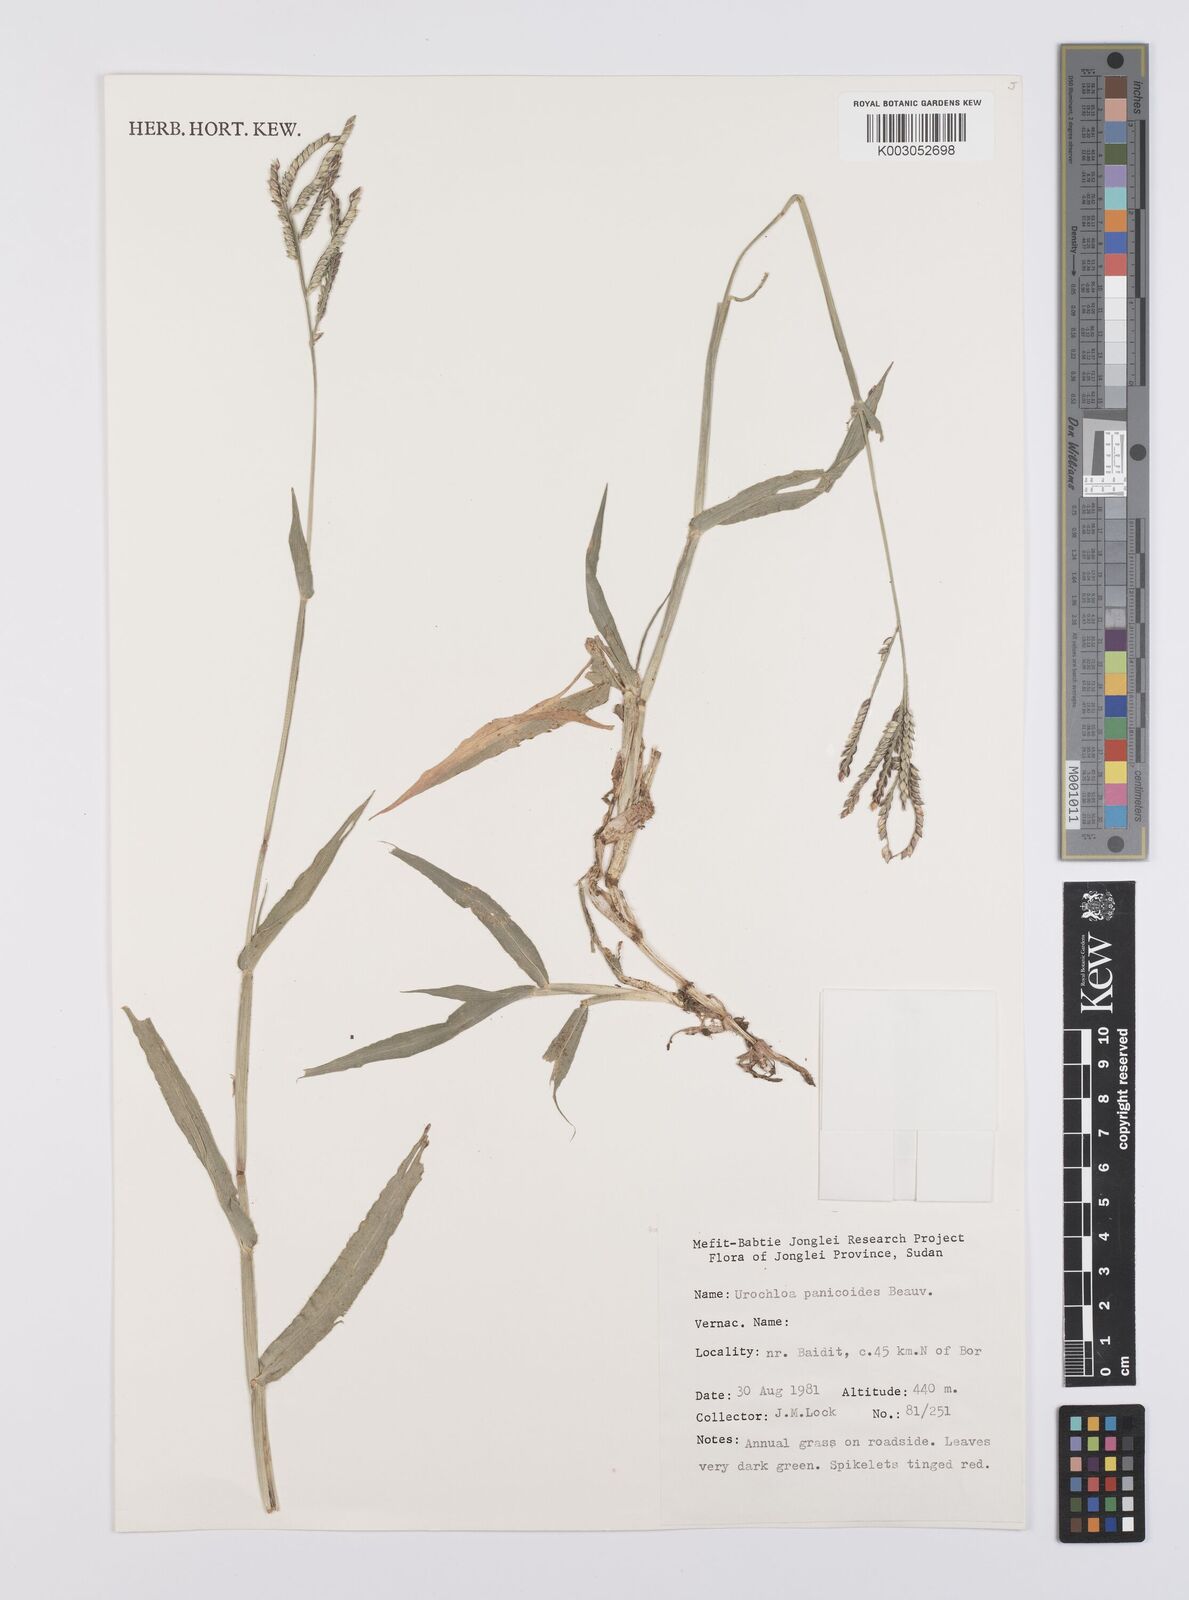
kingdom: Plantae
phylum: Tracheophyta
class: Liliopsida
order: Poales
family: Poaceae
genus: Urochloa
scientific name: Urochloa panicoides
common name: Sharp-flowered signal-grass
